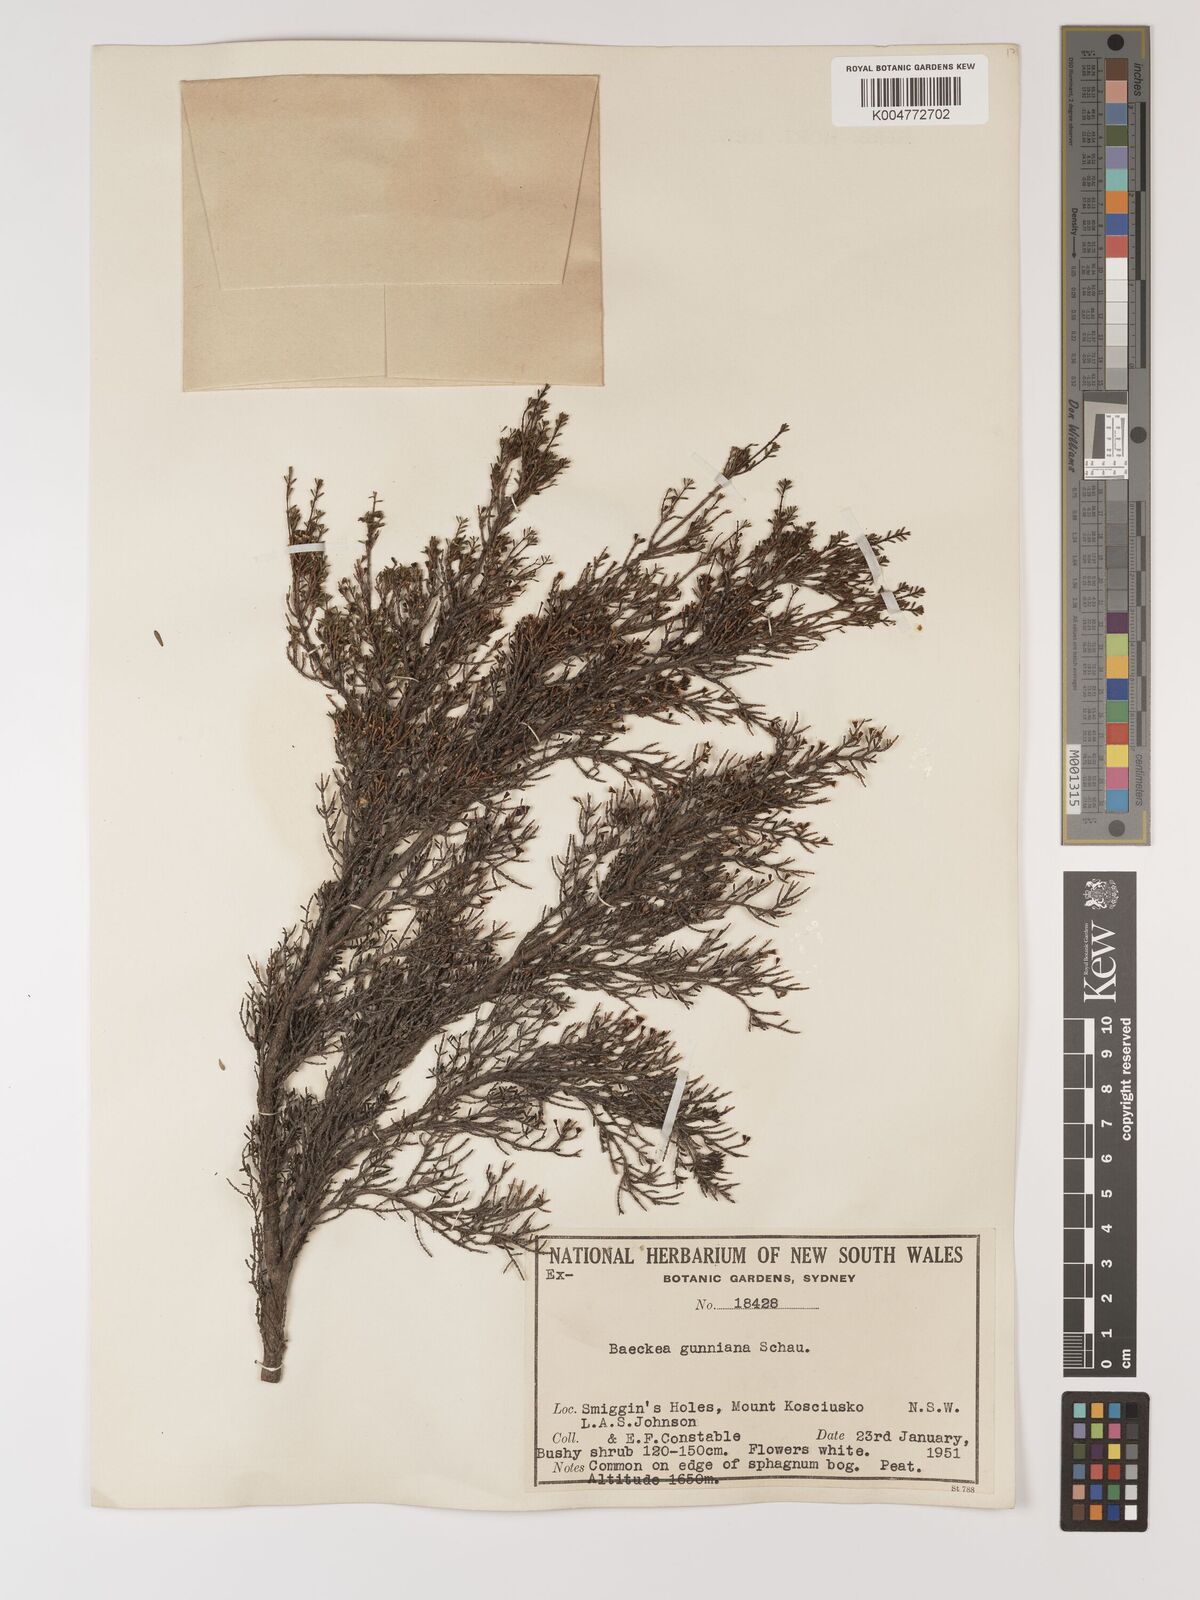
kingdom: Plantae
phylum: Tracheophyta
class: Magnoliopsida
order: Myrtales
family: Myrtaceae
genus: Baeckea
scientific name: Baeckea gunniana
